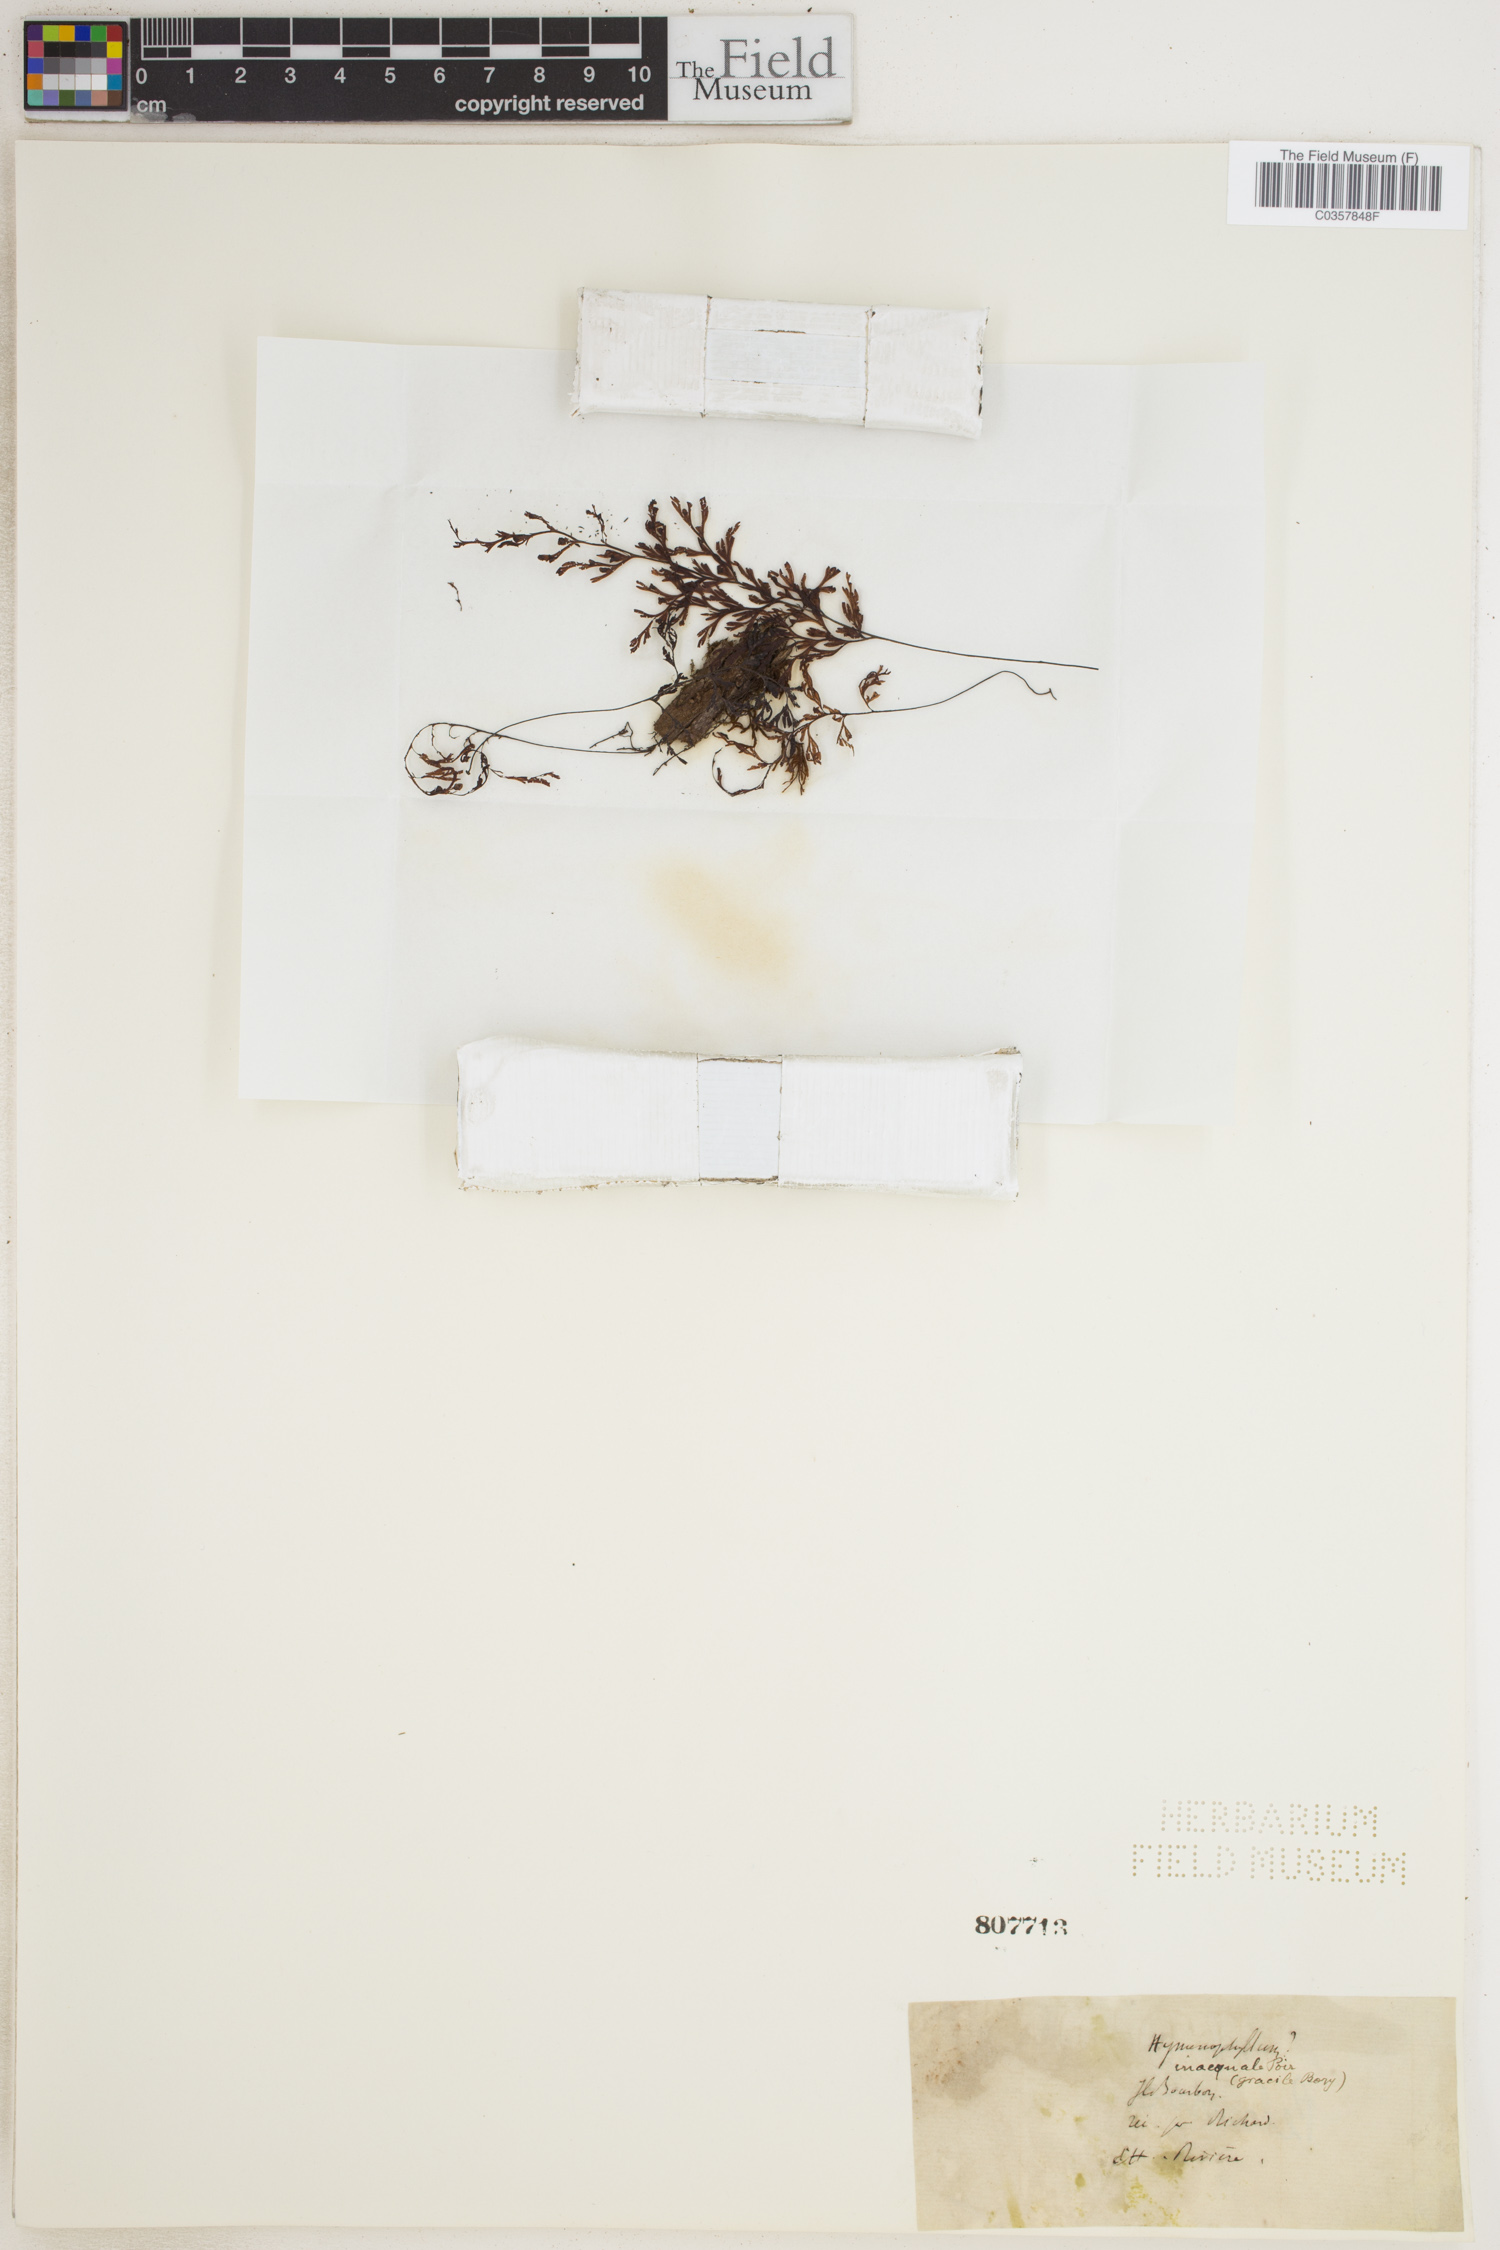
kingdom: Plantae
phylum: Tracheophyta
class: Polypodiopsida
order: Hymenophyllales
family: Hymenophyllaceae
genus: Hymenophyllum
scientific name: Hymenophyllum inaequale
